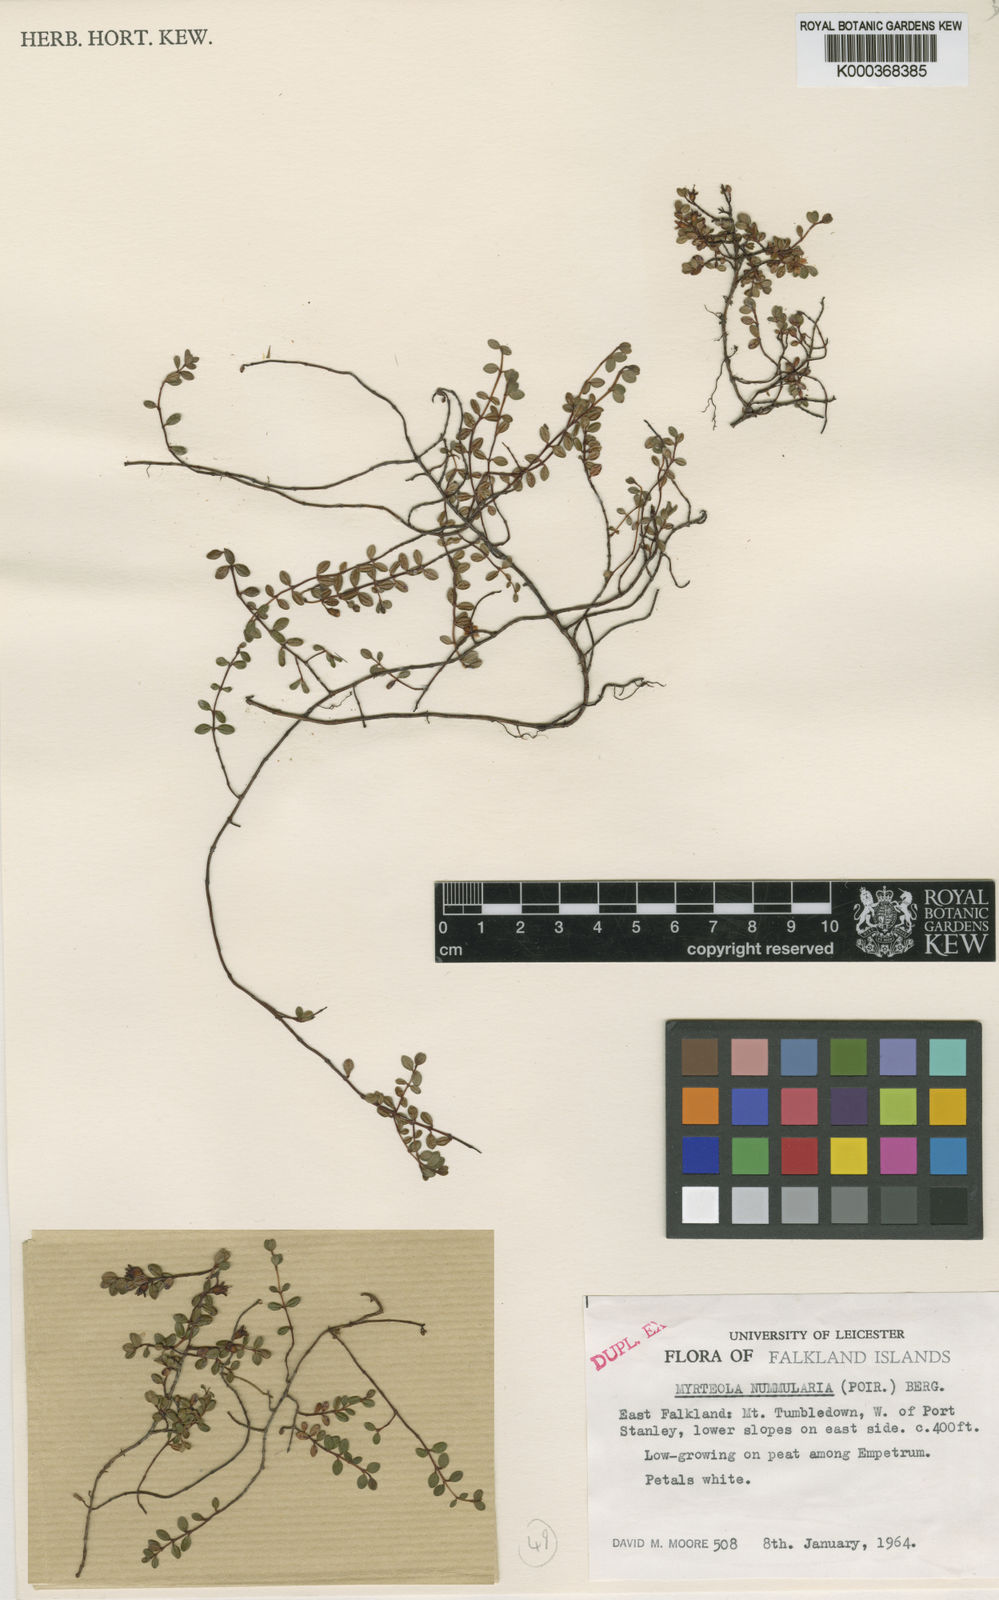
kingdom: Plantae
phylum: Tracheophyta
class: Magnoliopsida
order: Myrtales
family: Myrtaceae
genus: Myrteola
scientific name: Myrteola nummularia
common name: Cranberry-myrtle
